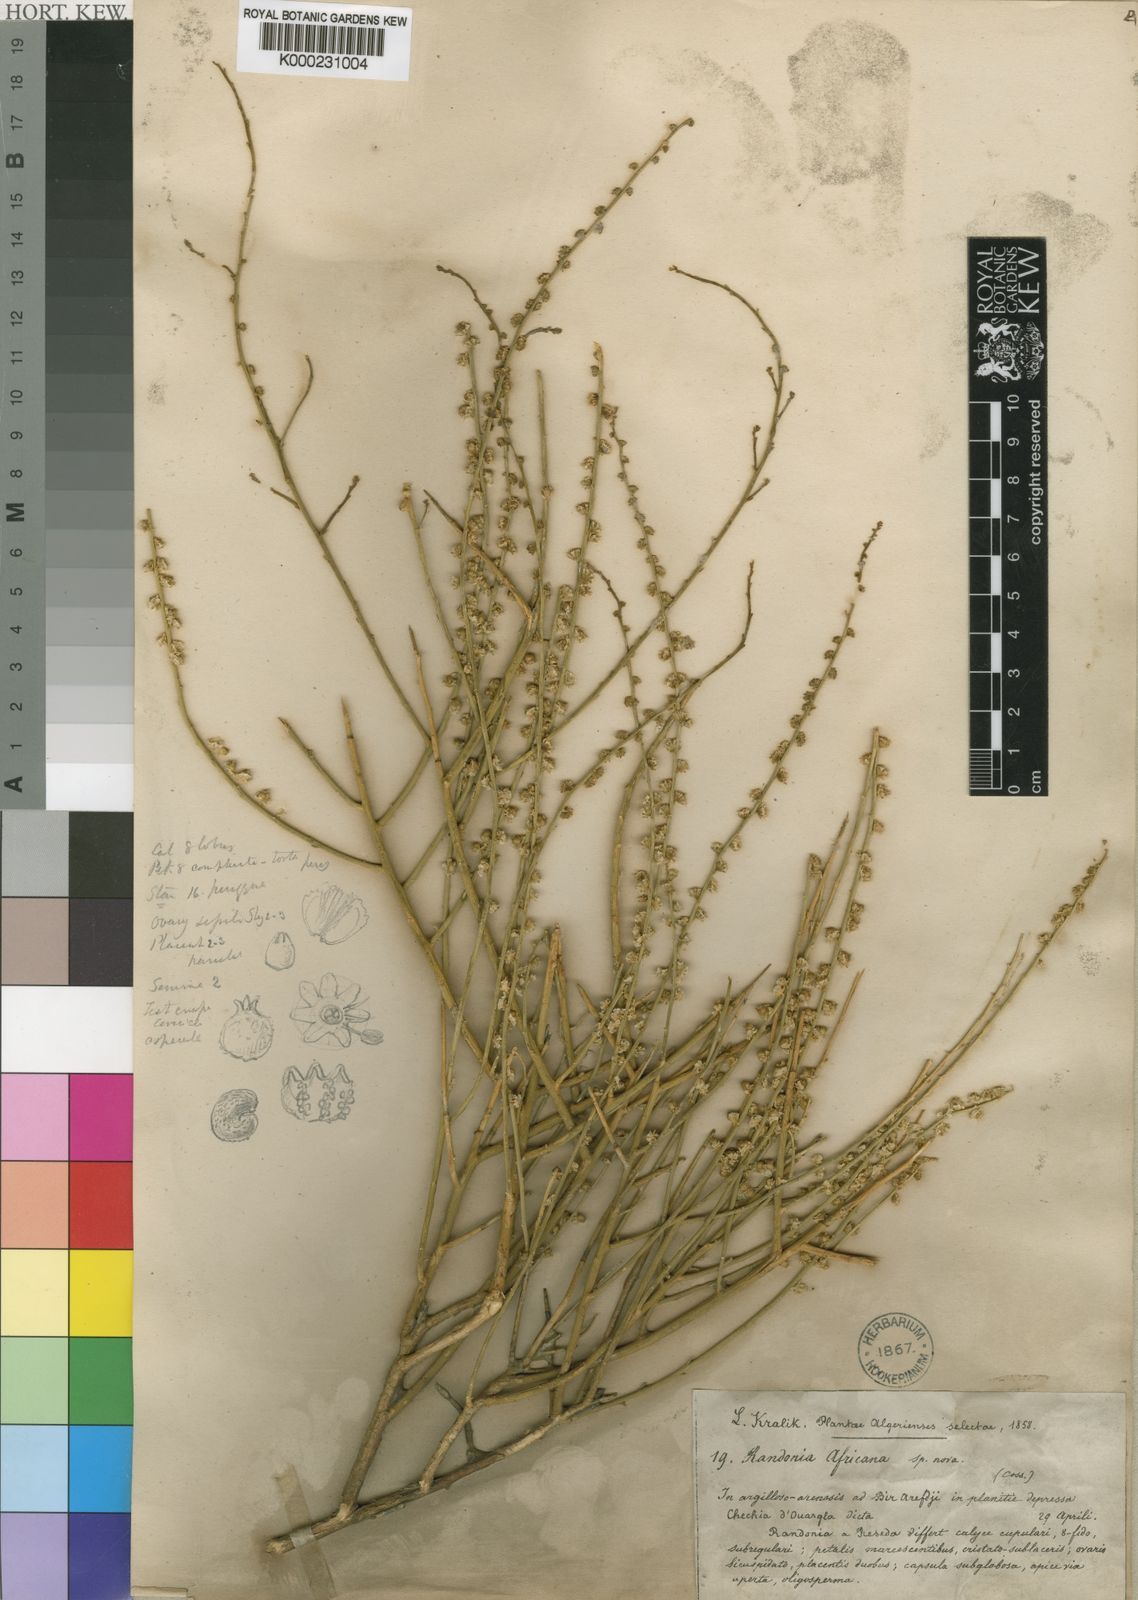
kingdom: Plantae
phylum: Tracheophyta
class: Magnoliopsida
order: Brassicales
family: Resedaceae
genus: Randonia
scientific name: Randonia
